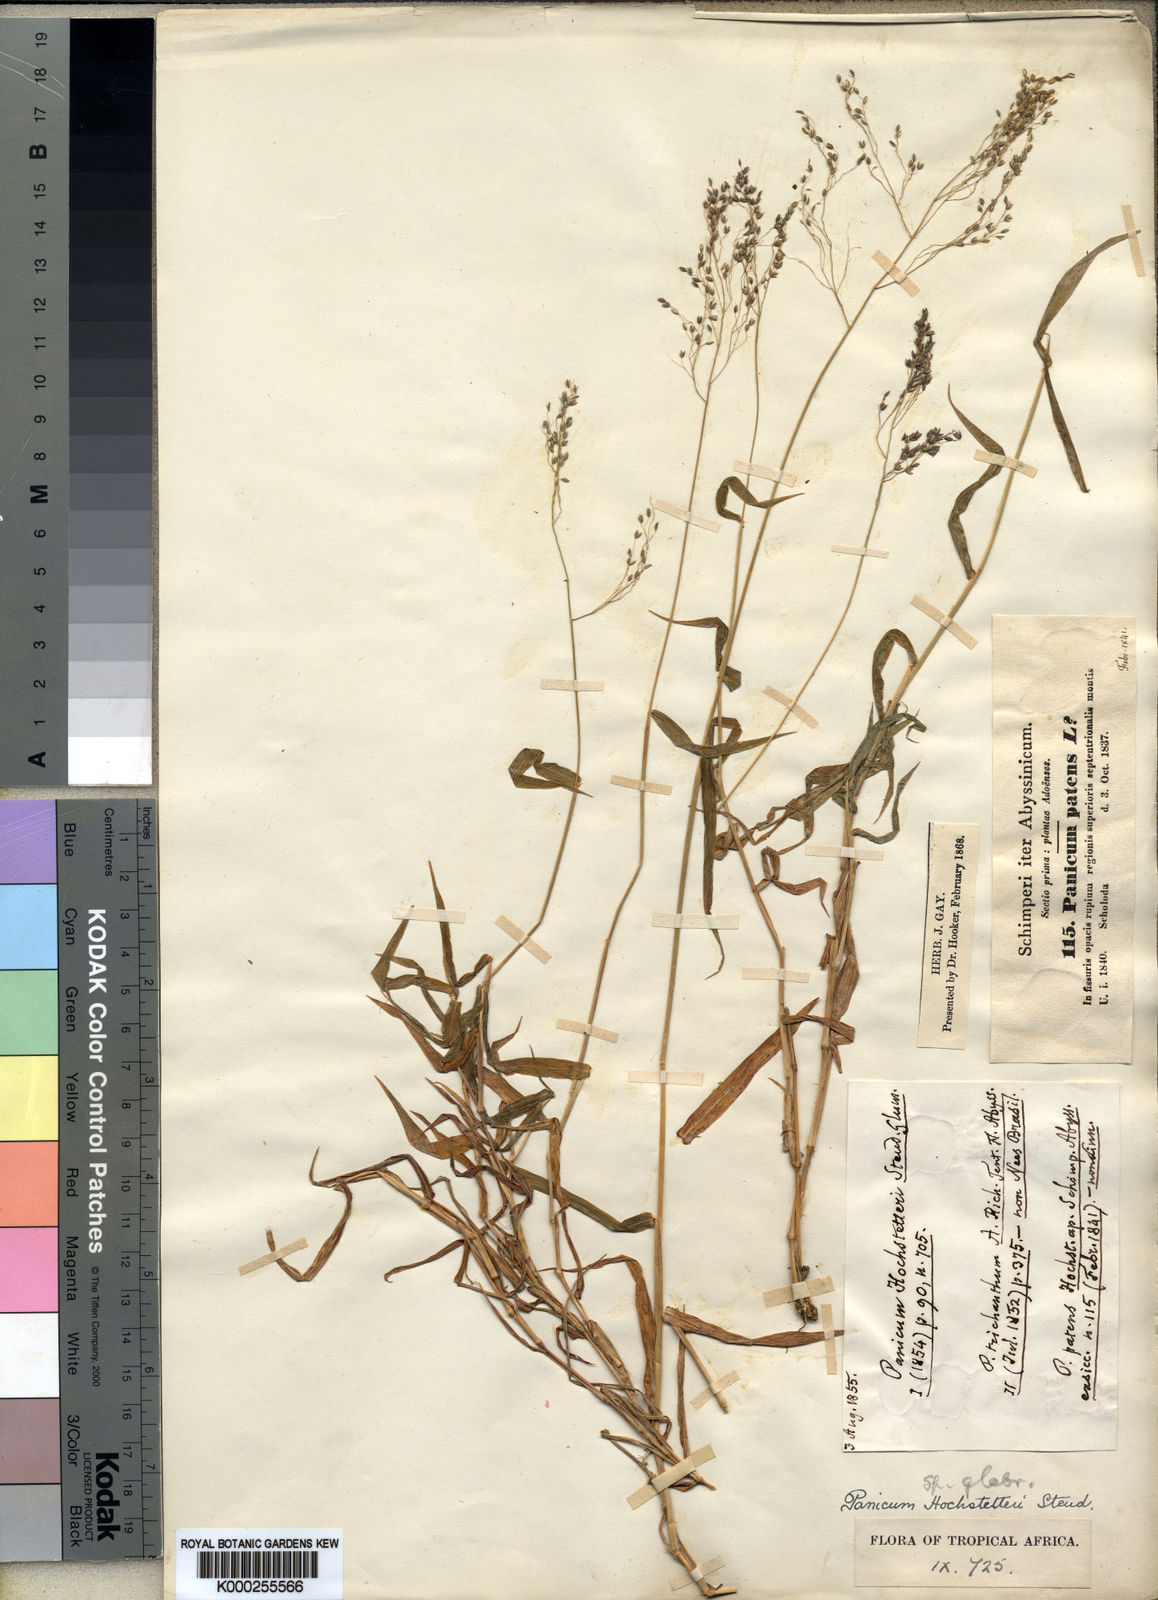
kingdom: Plantae
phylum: Tracheophyta
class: Liliopsida
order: Poales
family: Poaceae
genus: Panicum
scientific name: Panicum hochstetteri
